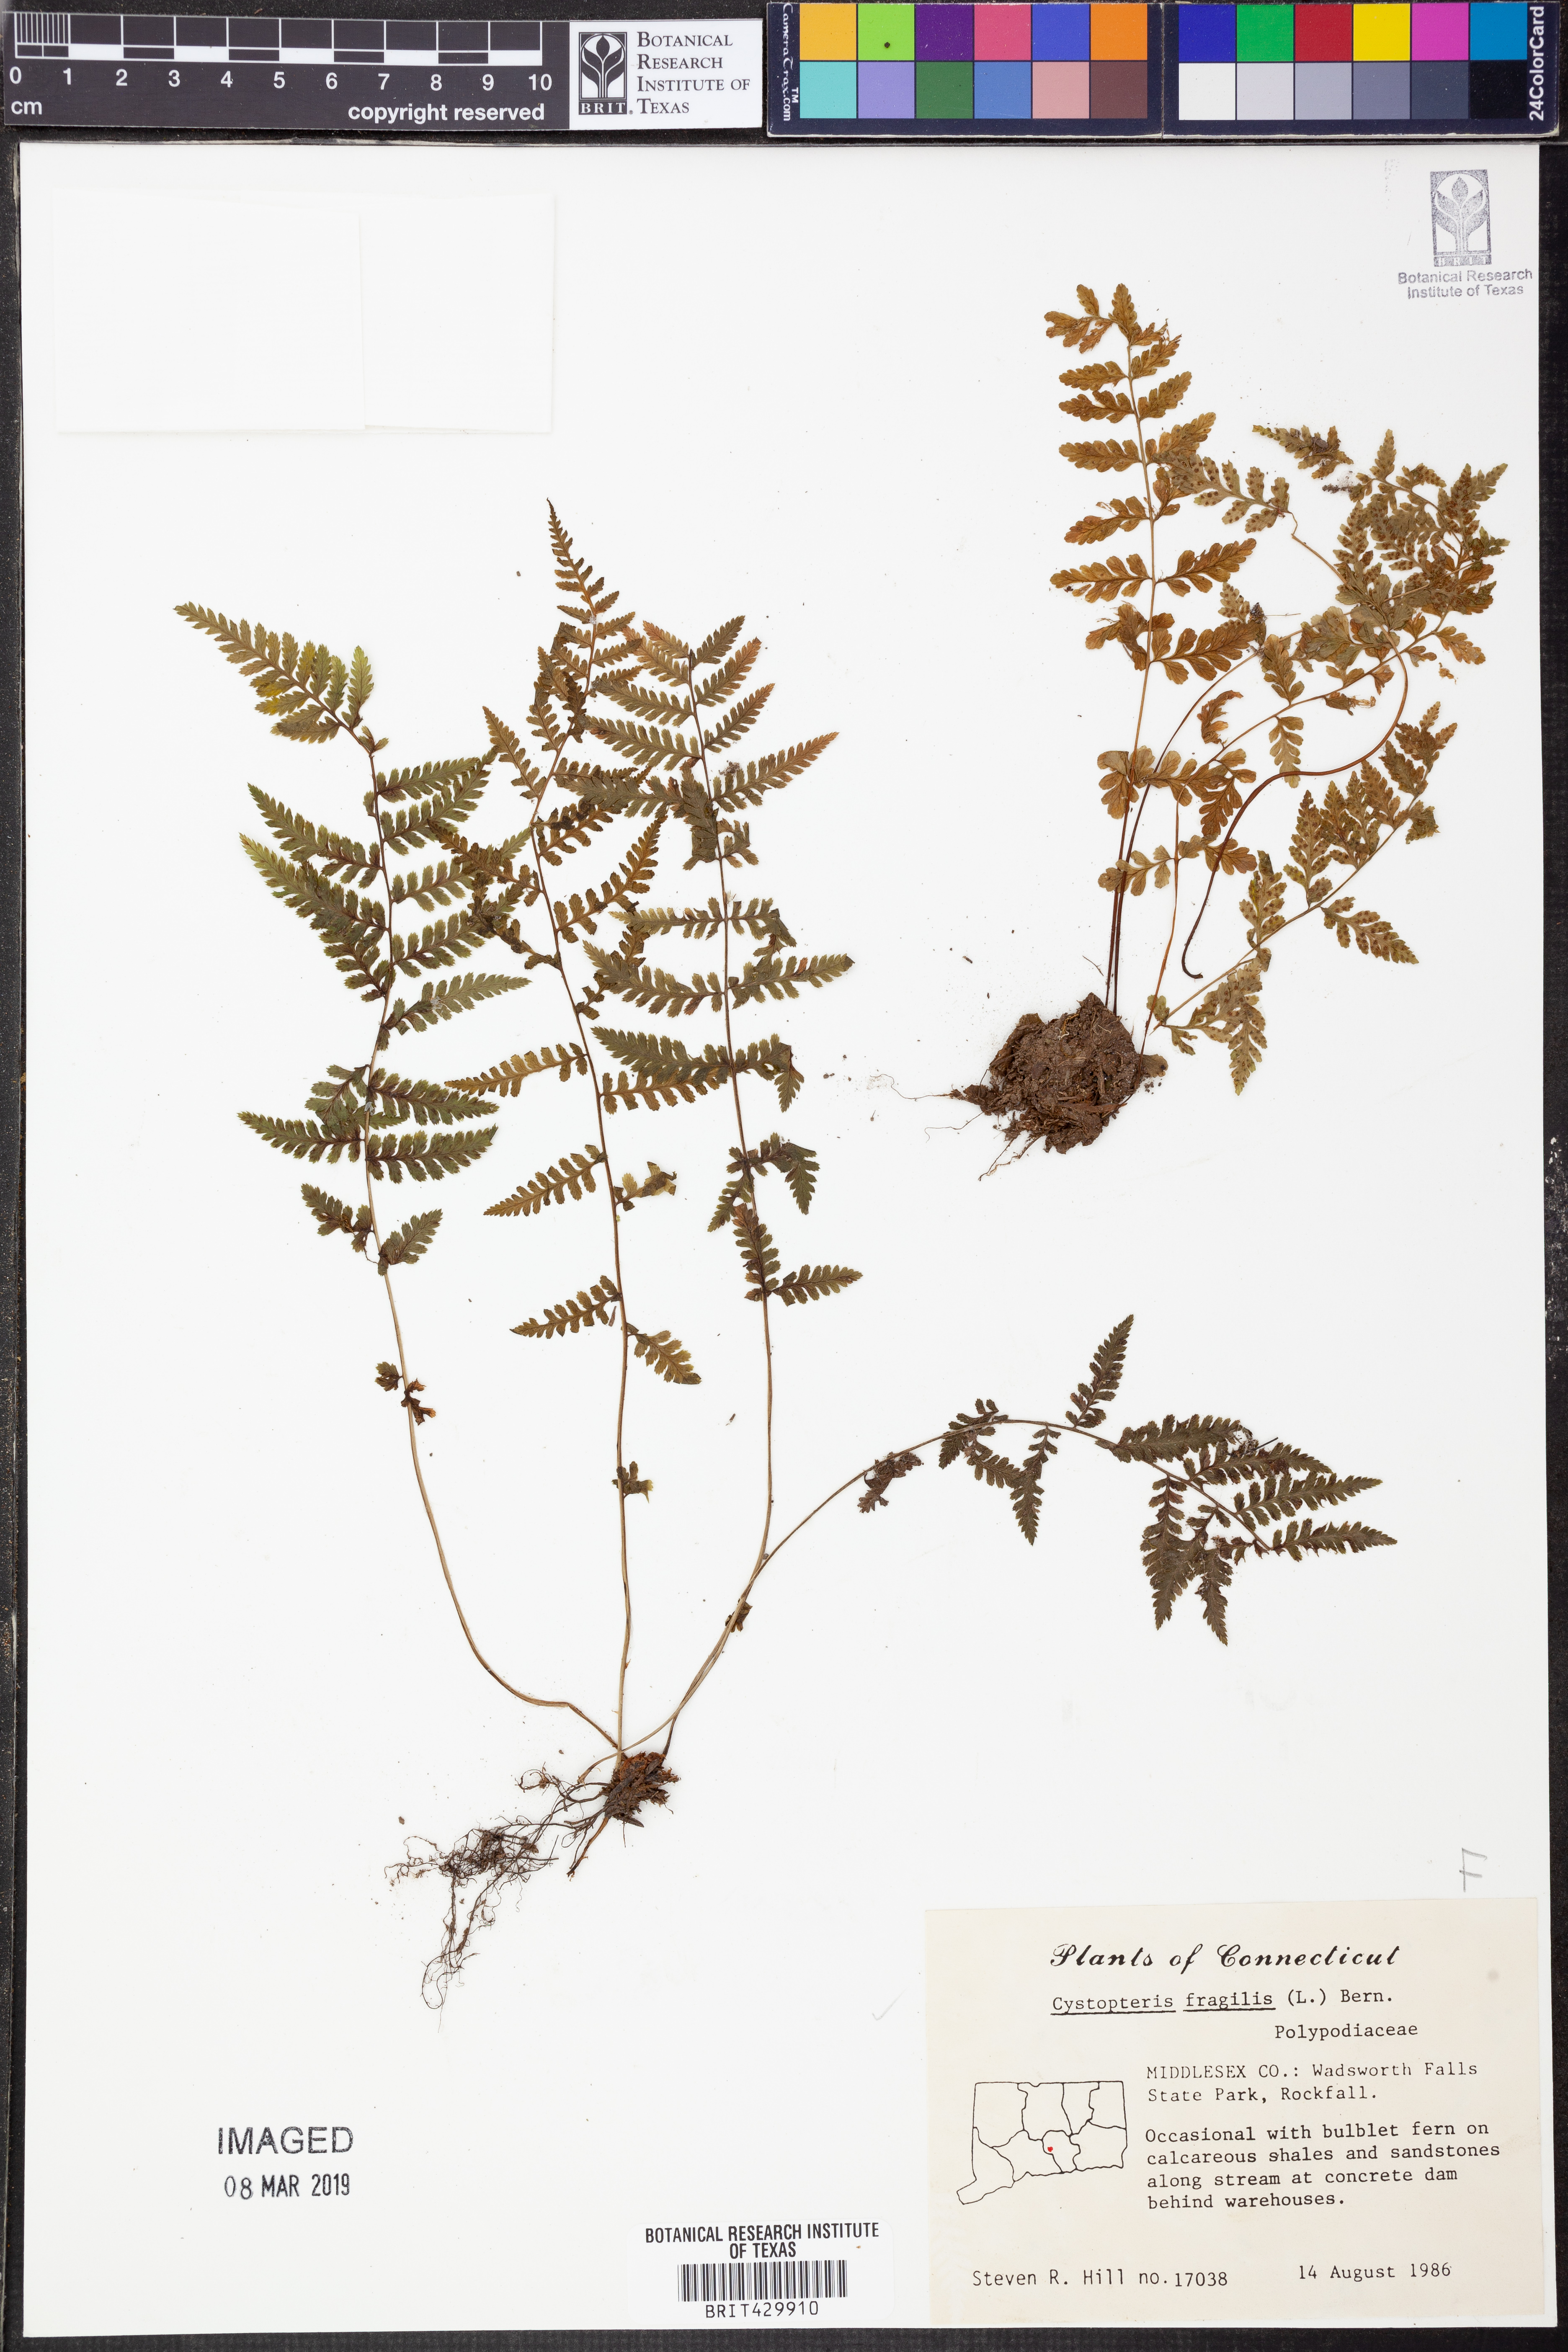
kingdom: Plantae
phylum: Tracheophyta
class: Polypodiopsida
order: Polypodiales
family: Cystopteridaceae
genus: Cystopteris
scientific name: Cystopteris fragilis
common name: Brittle bladder fern
